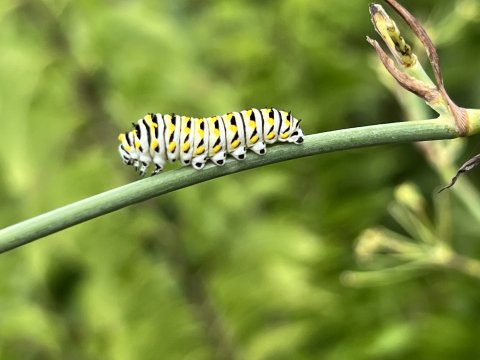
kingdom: Animalia
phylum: Arthropoda
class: Insecta
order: Lepidoptera
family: Papilionidae
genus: Papilio
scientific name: Papilio polyxenes
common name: Black Swallowtail
